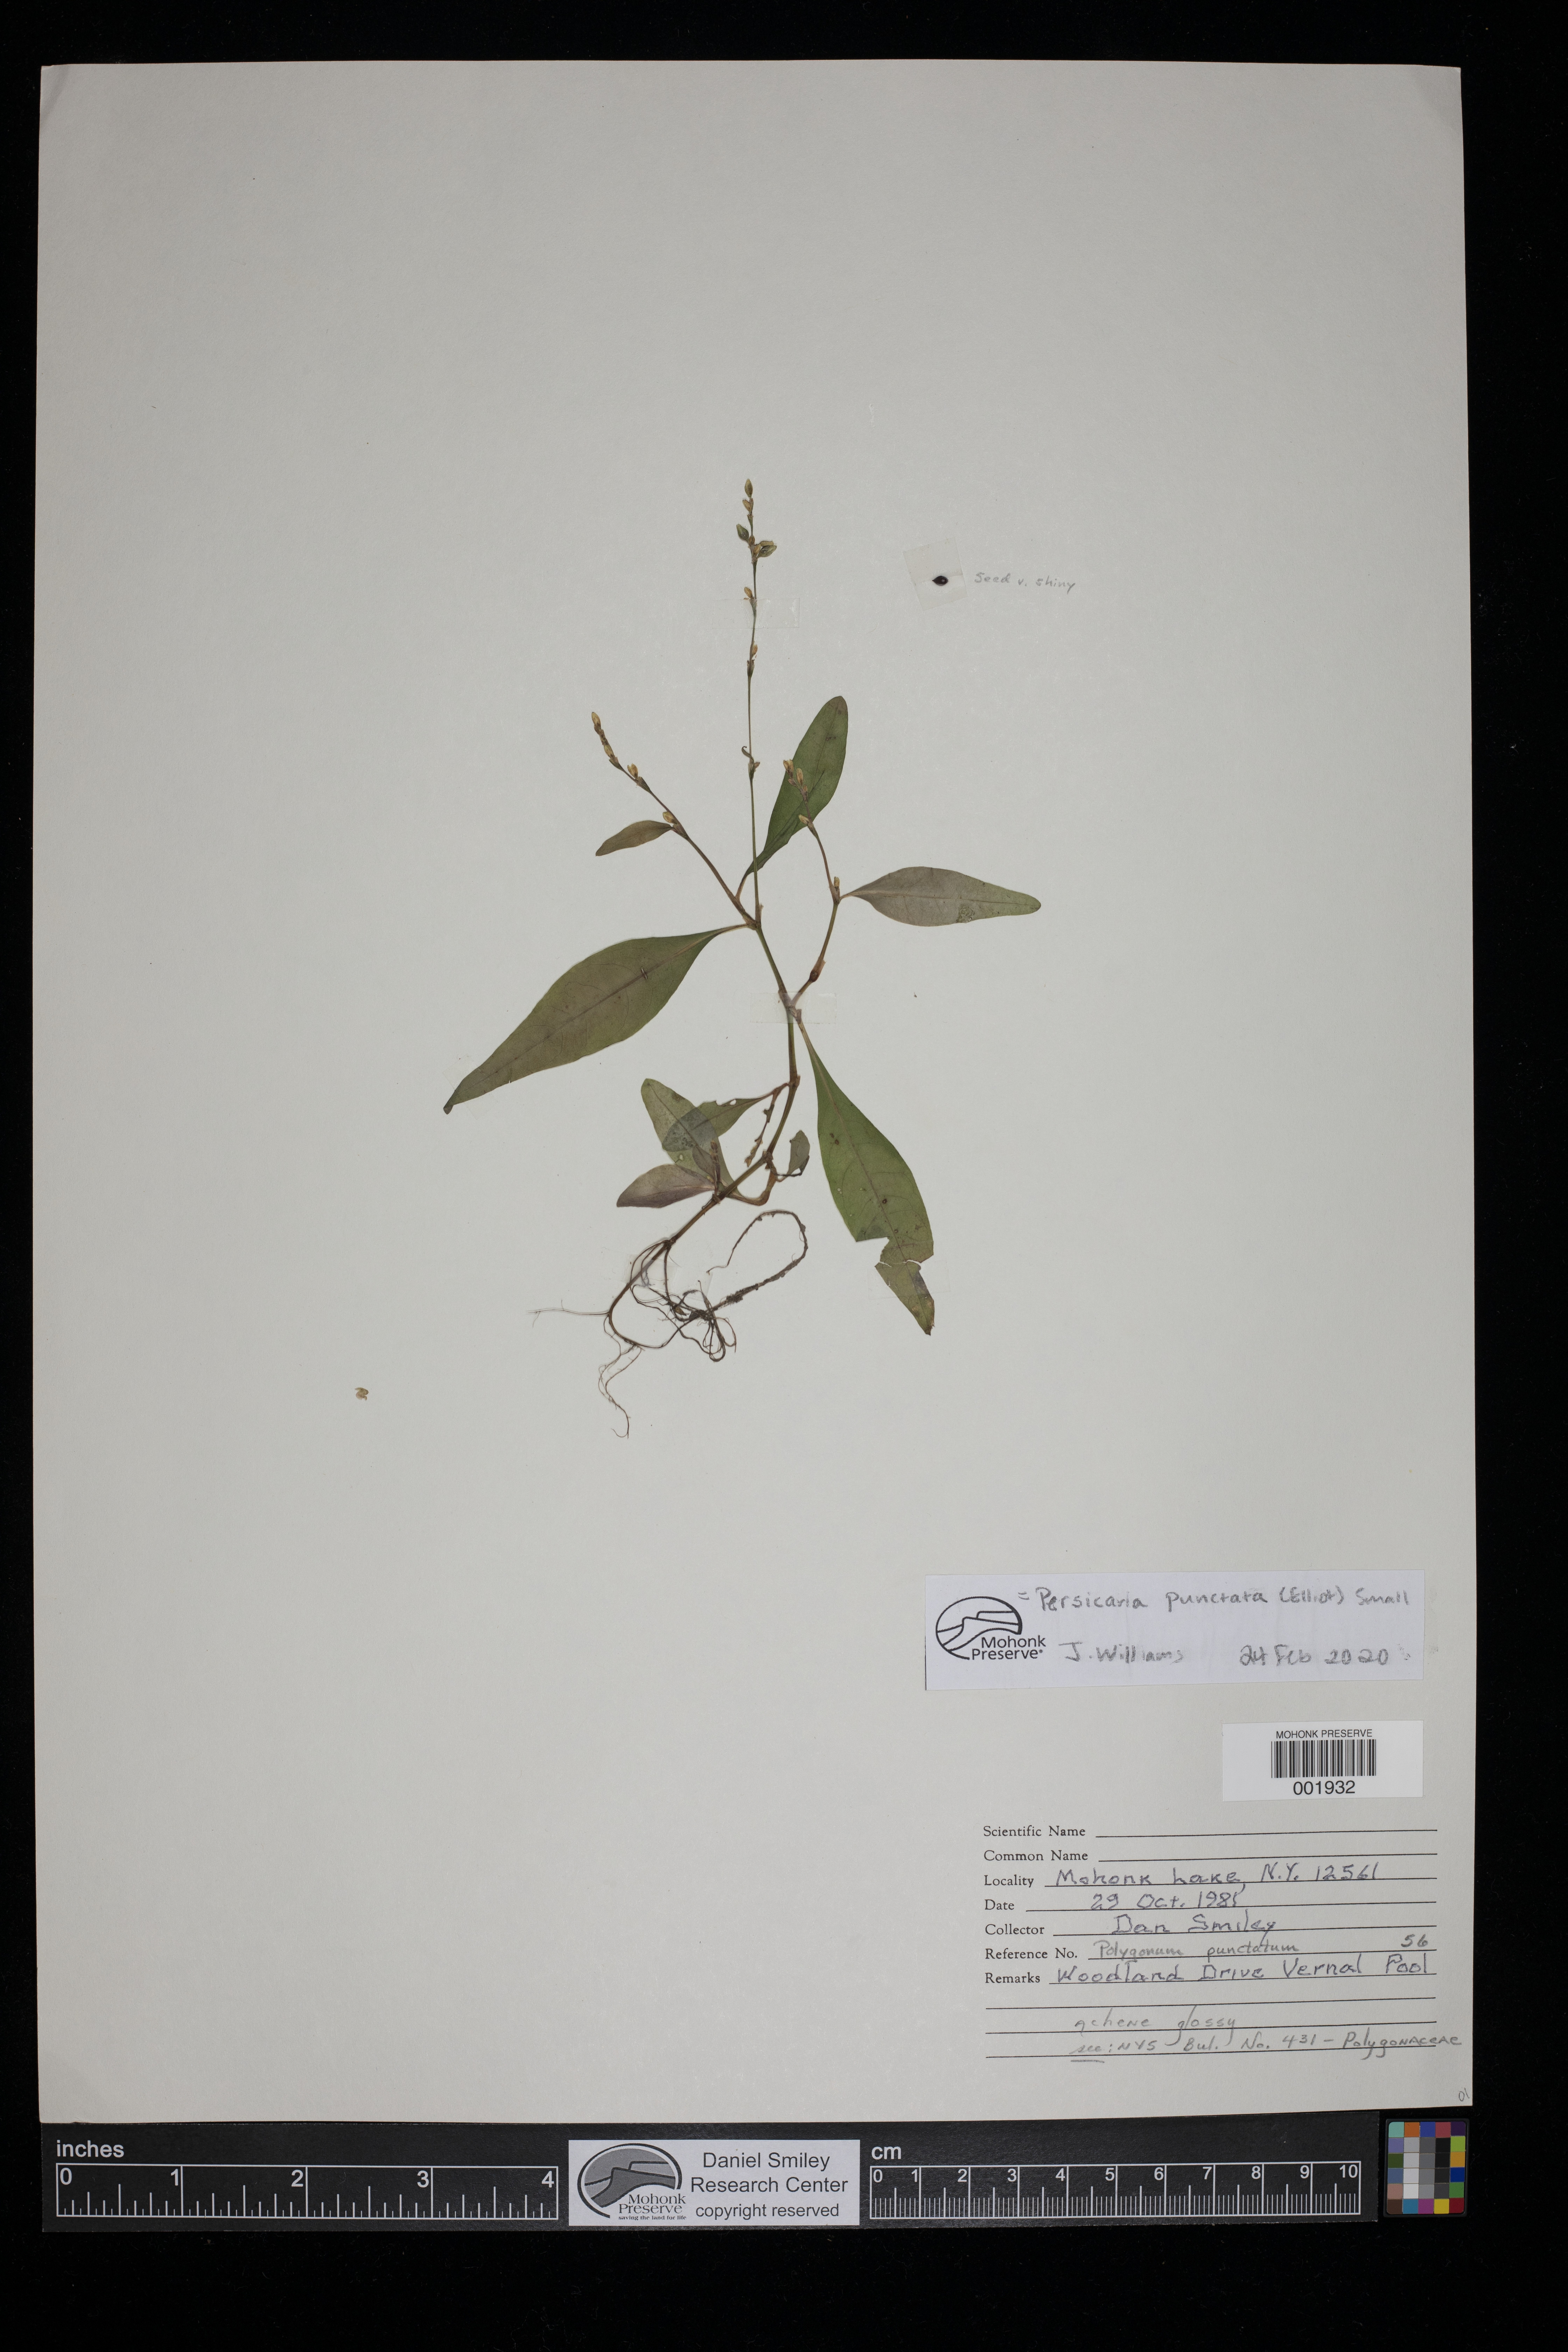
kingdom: Plantae
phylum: Tracheophyta
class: Magnoliopsida
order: Caryophyllales
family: Polygonaceae
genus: Persicaria
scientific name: Persicaria punctata
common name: Dotted smartweed
